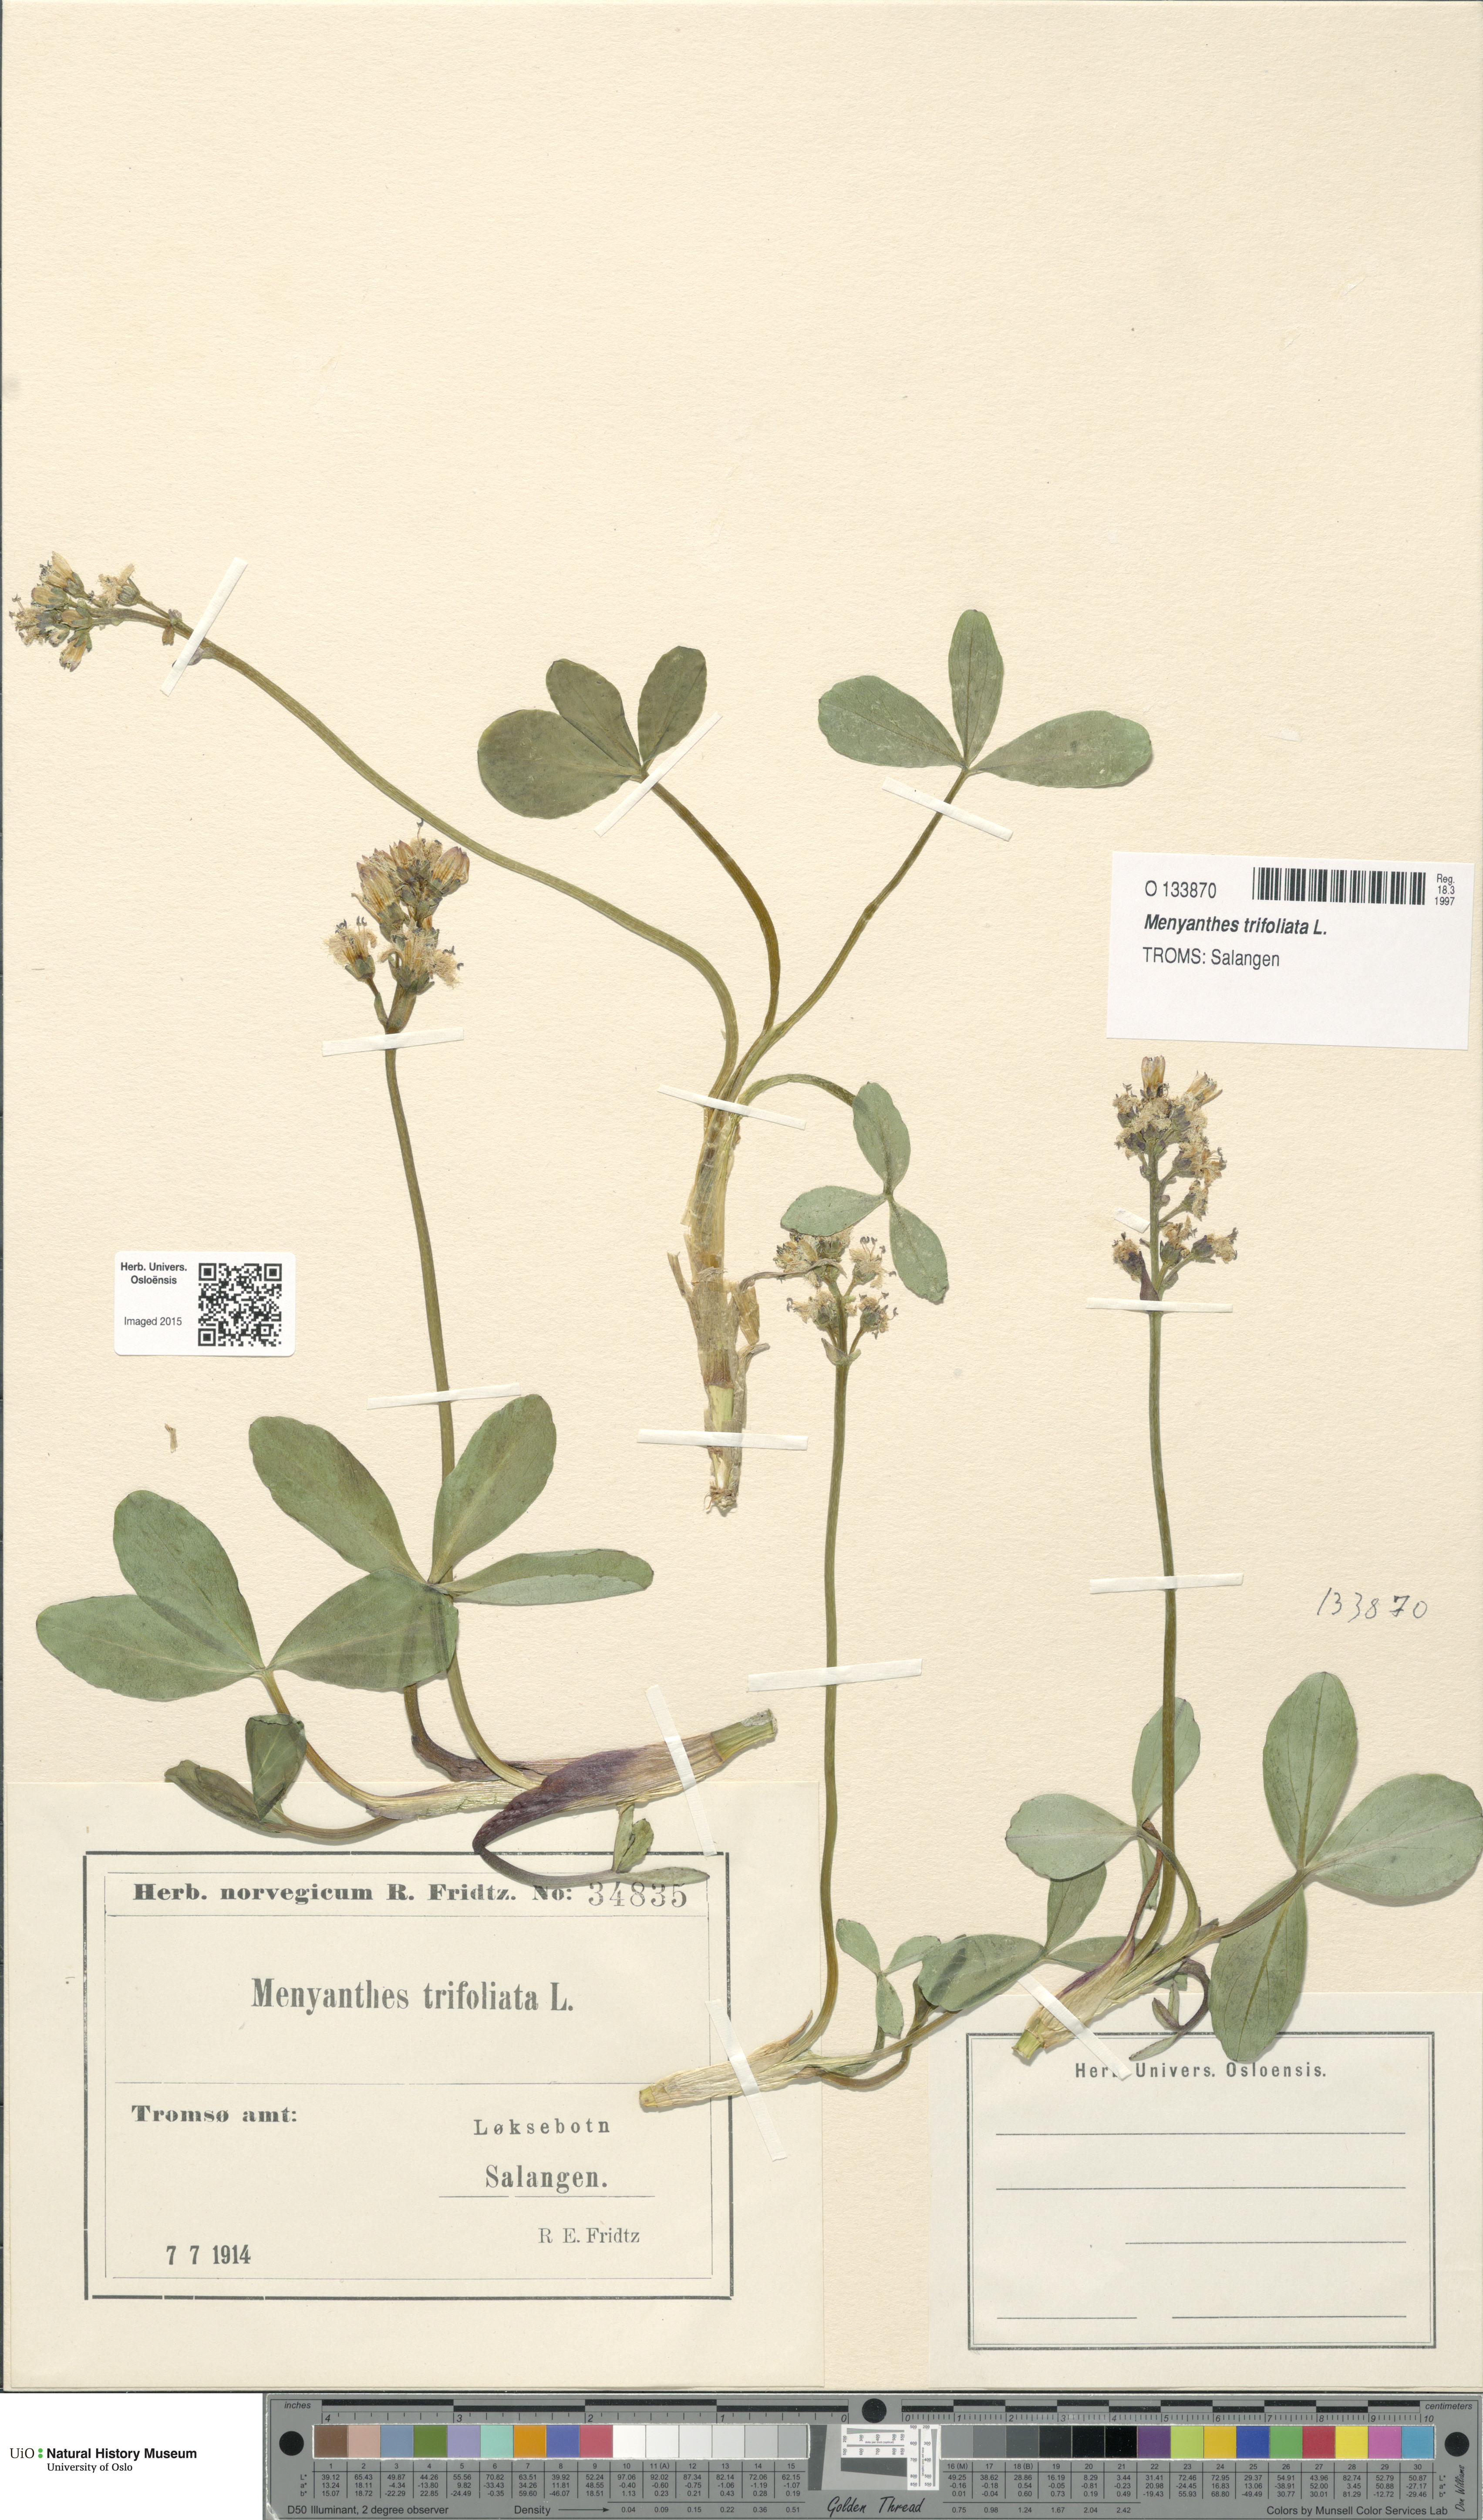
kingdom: Plantae
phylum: Tracheophyta
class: Magnoliopsida
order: Asterales
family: Menyanthaceae
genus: Menyanthes
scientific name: Menyanthes trifoliata
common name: Bogbean
